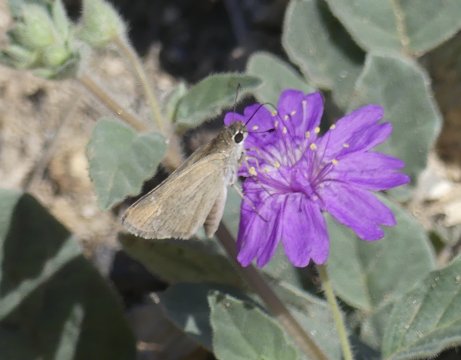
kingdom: Animalia
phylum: Arthropoda
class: Insecta
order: Lepidoptera
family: Hesperiidae
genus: Lerodea
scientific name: Lerodea eufala
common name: Eufala Skipper
